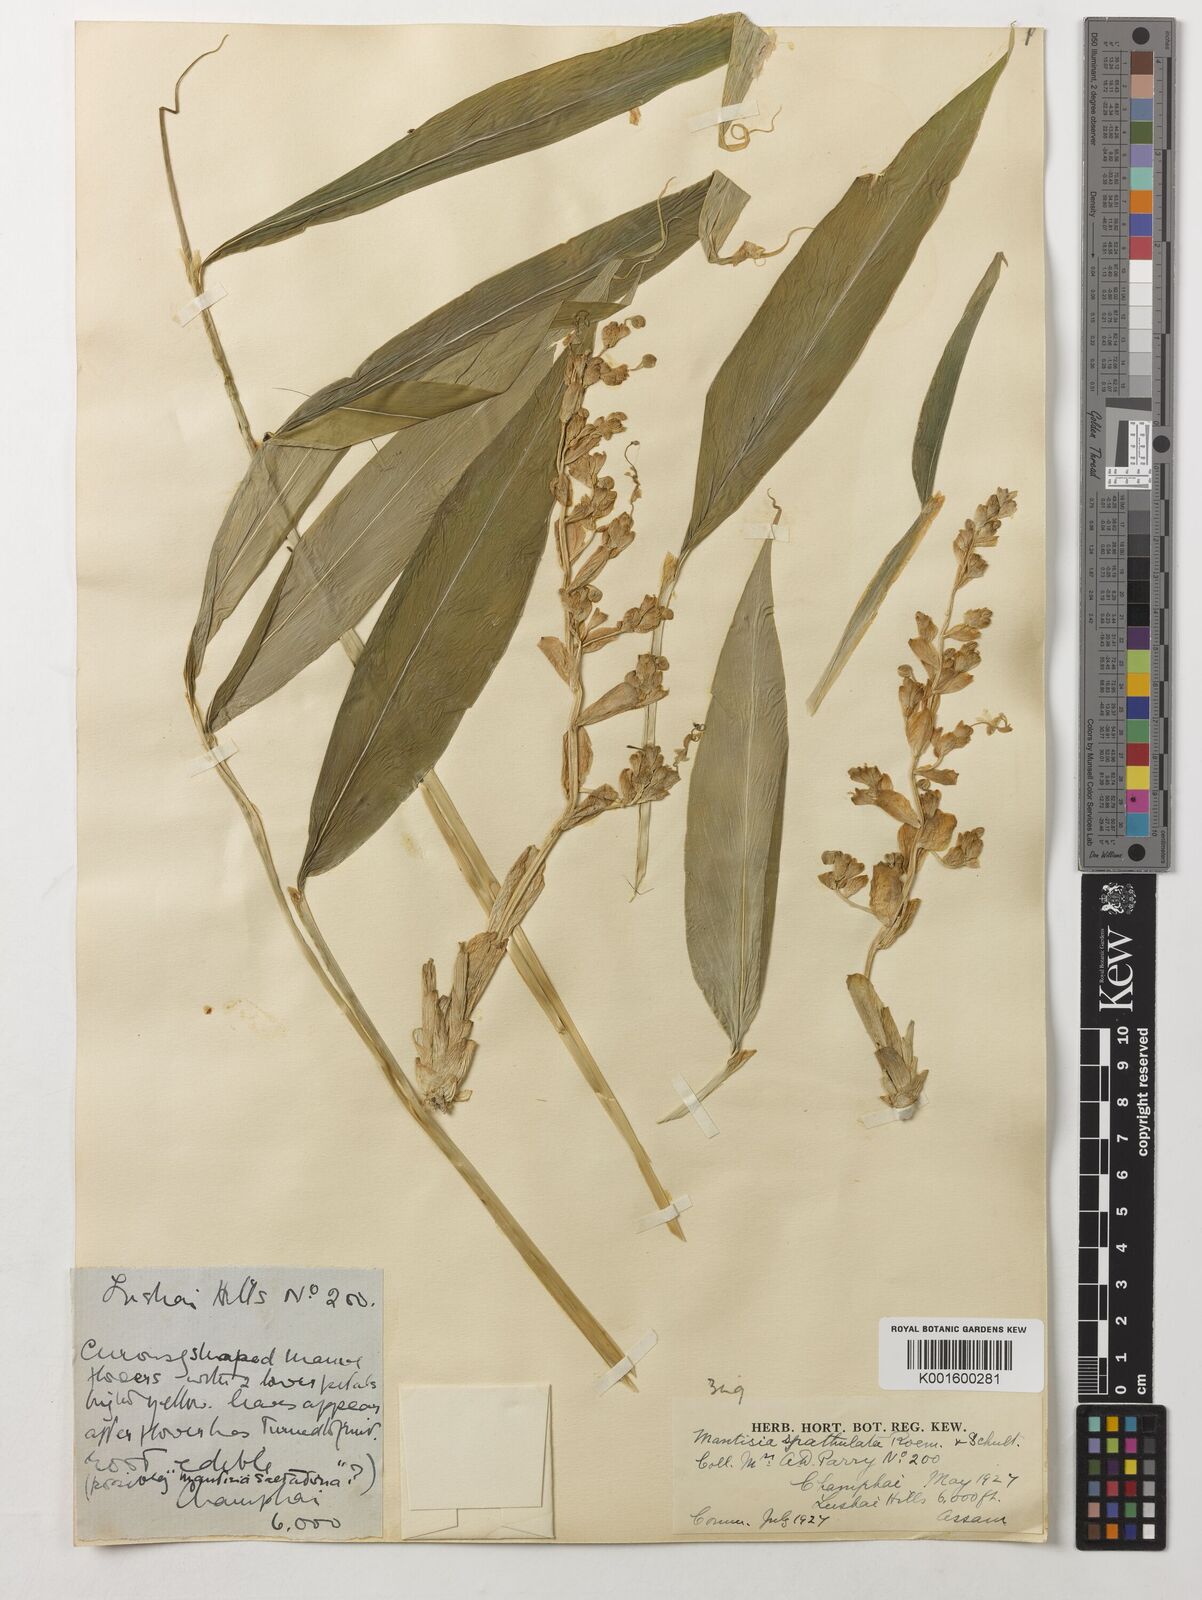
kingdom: Plantae
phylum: Tracheophyta
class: Liliopsida
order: Zingiberales
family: Zingiberaceae
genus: Globba
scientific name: Globba spathulata
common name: Dancing girl flower
